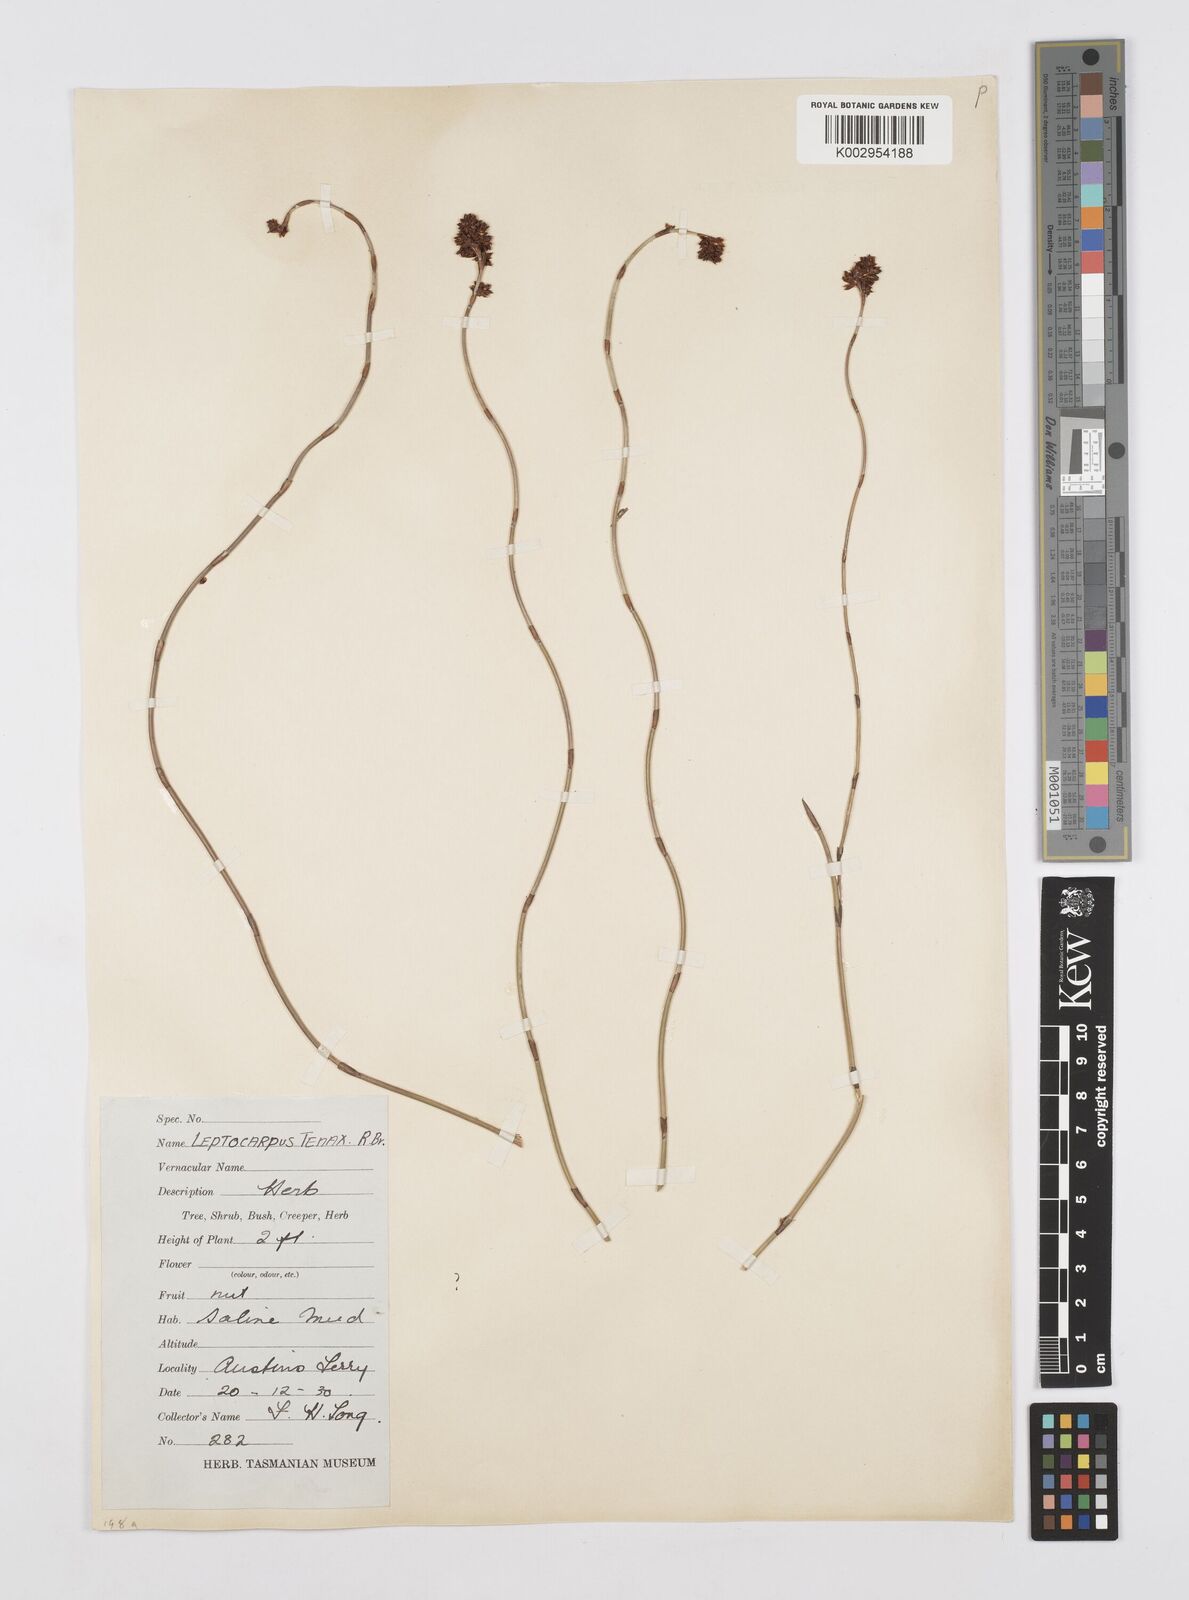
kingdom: Plantae
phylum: Tracheophyta
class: Liliopsida
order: Poales
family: Restionaceae
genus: Leptocarpus
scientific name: Leptocarpus tenax
